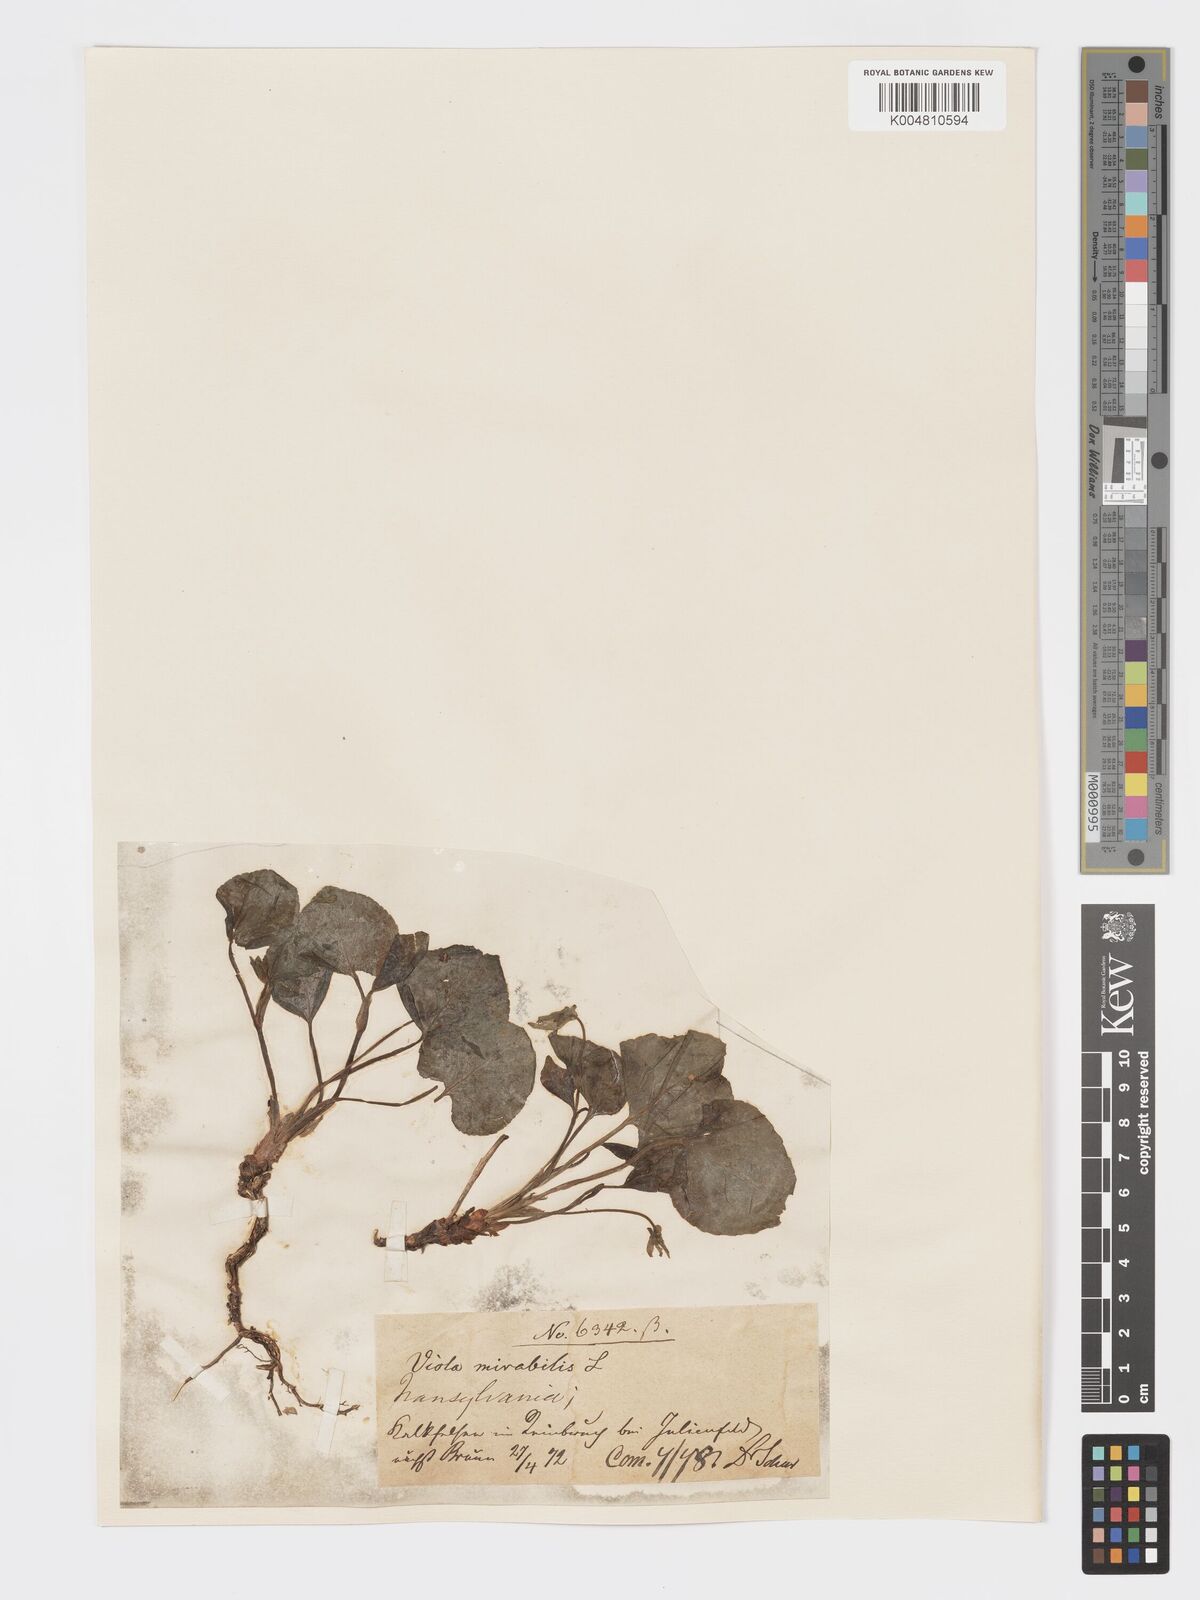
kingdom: Plantae
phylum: Tracheophyta
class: Magnoliopsida
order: Malpighiales
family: Violaceae
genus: Viola
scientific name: Viola mirabilis
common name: Wonder violet
